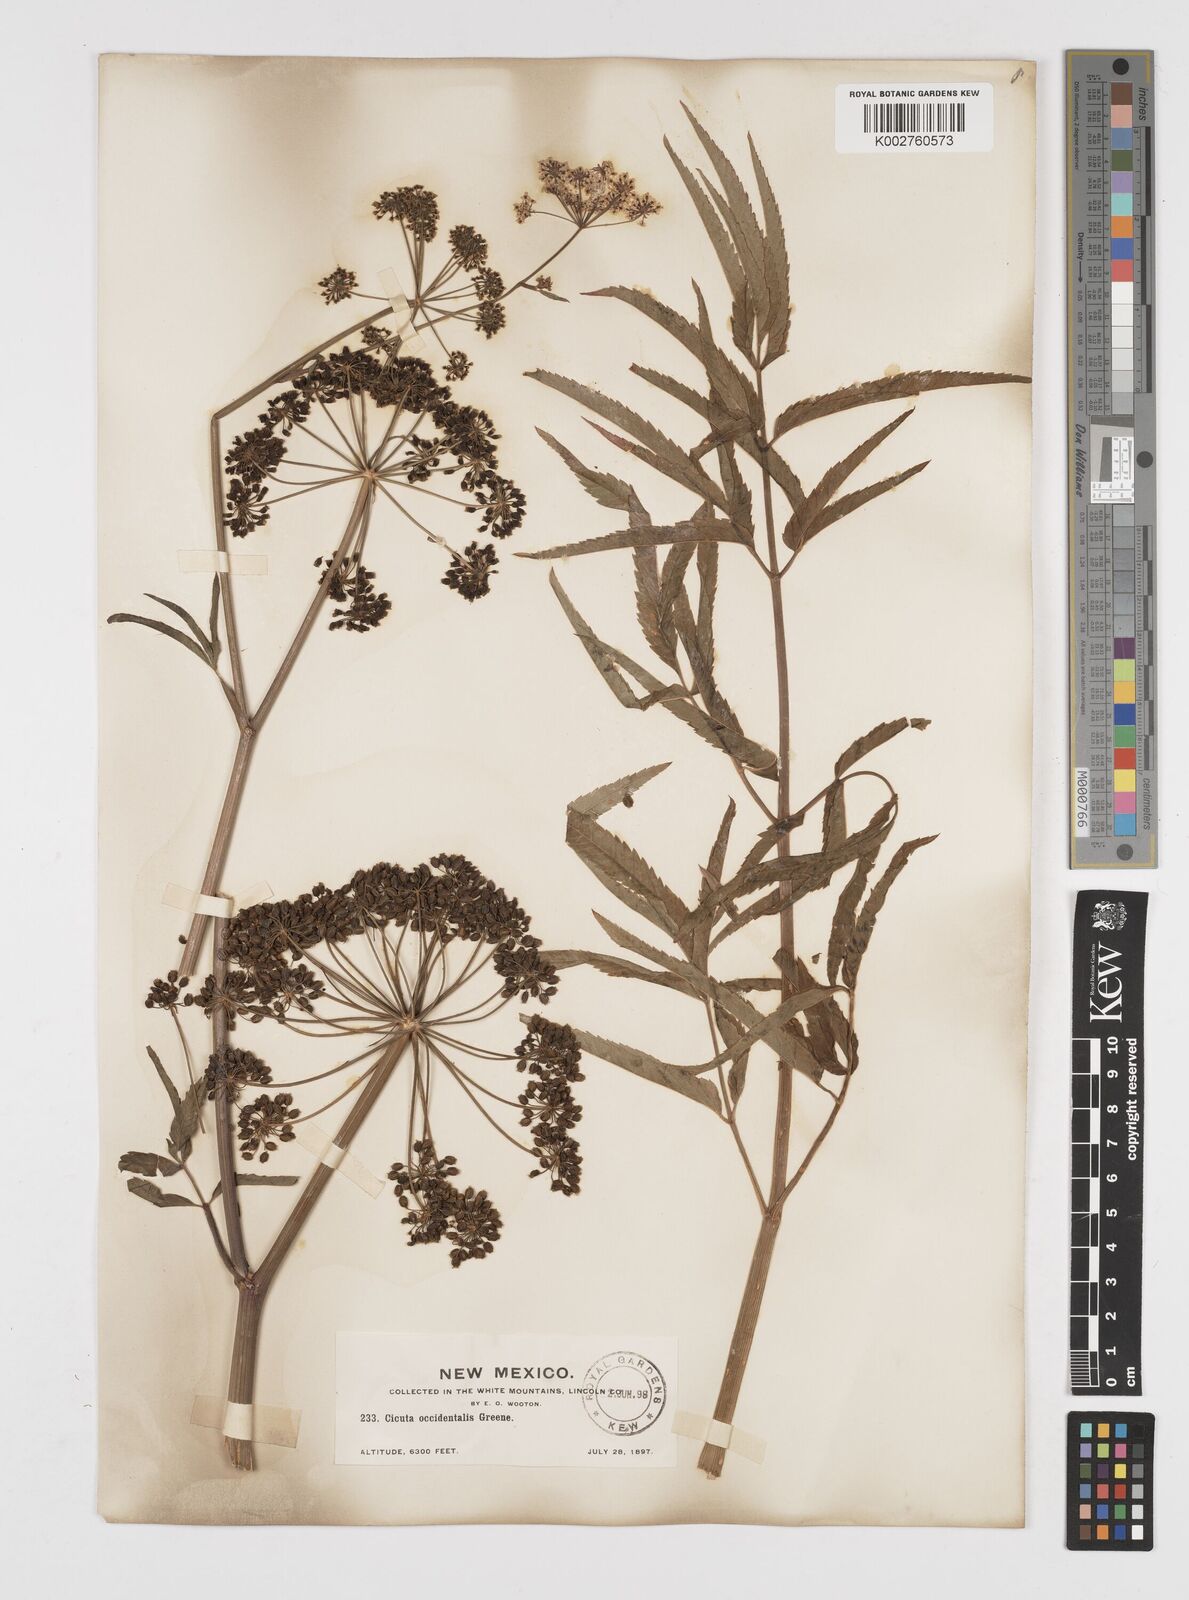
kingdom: Plantae
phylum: Tracheophyta
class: Magnoliopsida
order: Apiales
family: Apiaceae
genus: Cicuta
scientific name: Cicuta douglasii
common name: Western water-hemlock
